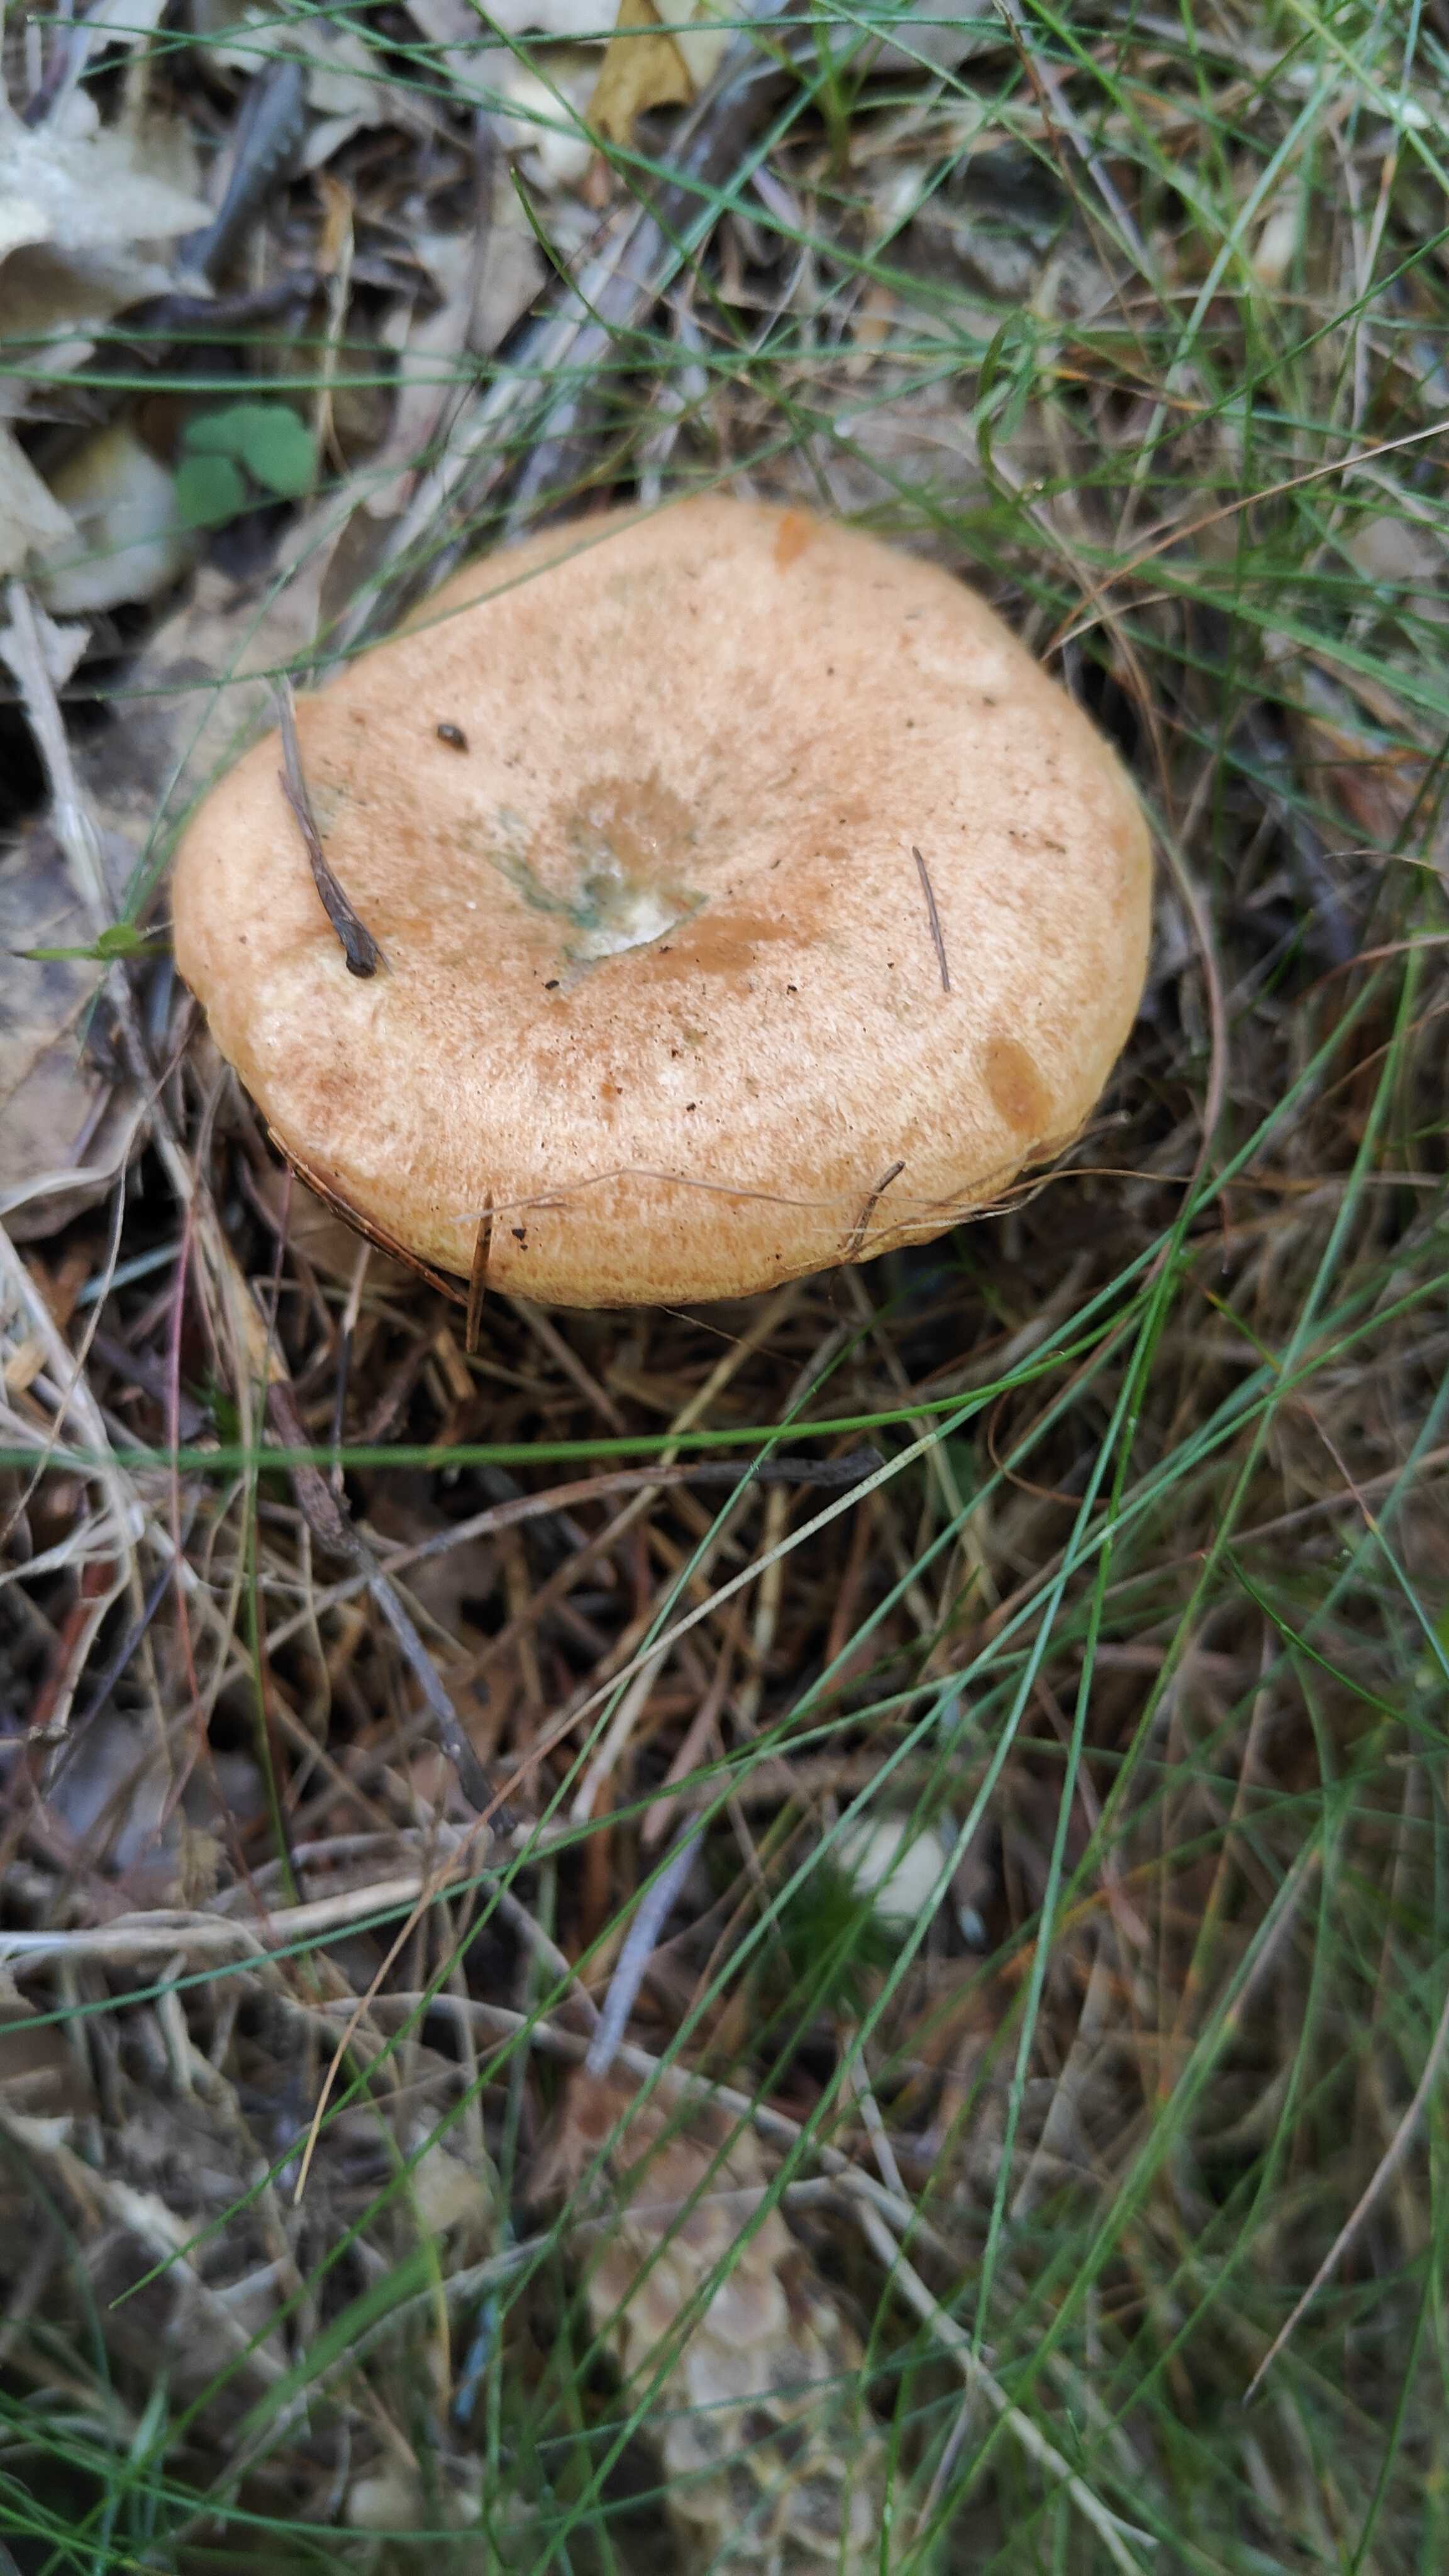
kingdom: Fungi
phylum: Basidiomycota
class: Agaricomycetes
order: Russulales
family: Russulaceae
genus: Lactarius
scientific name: Lactarius deterrimus
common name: gran-mælkehat
